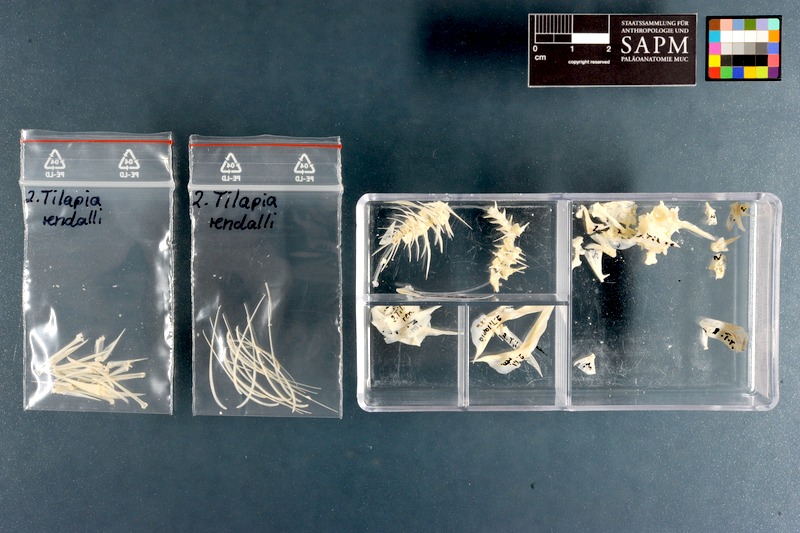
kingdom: Animalia
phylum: Chordata
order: Perciformes
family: Cichlidae
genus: Coptodon
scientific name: Coptodon rendalli
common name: Redbreast tilapia
